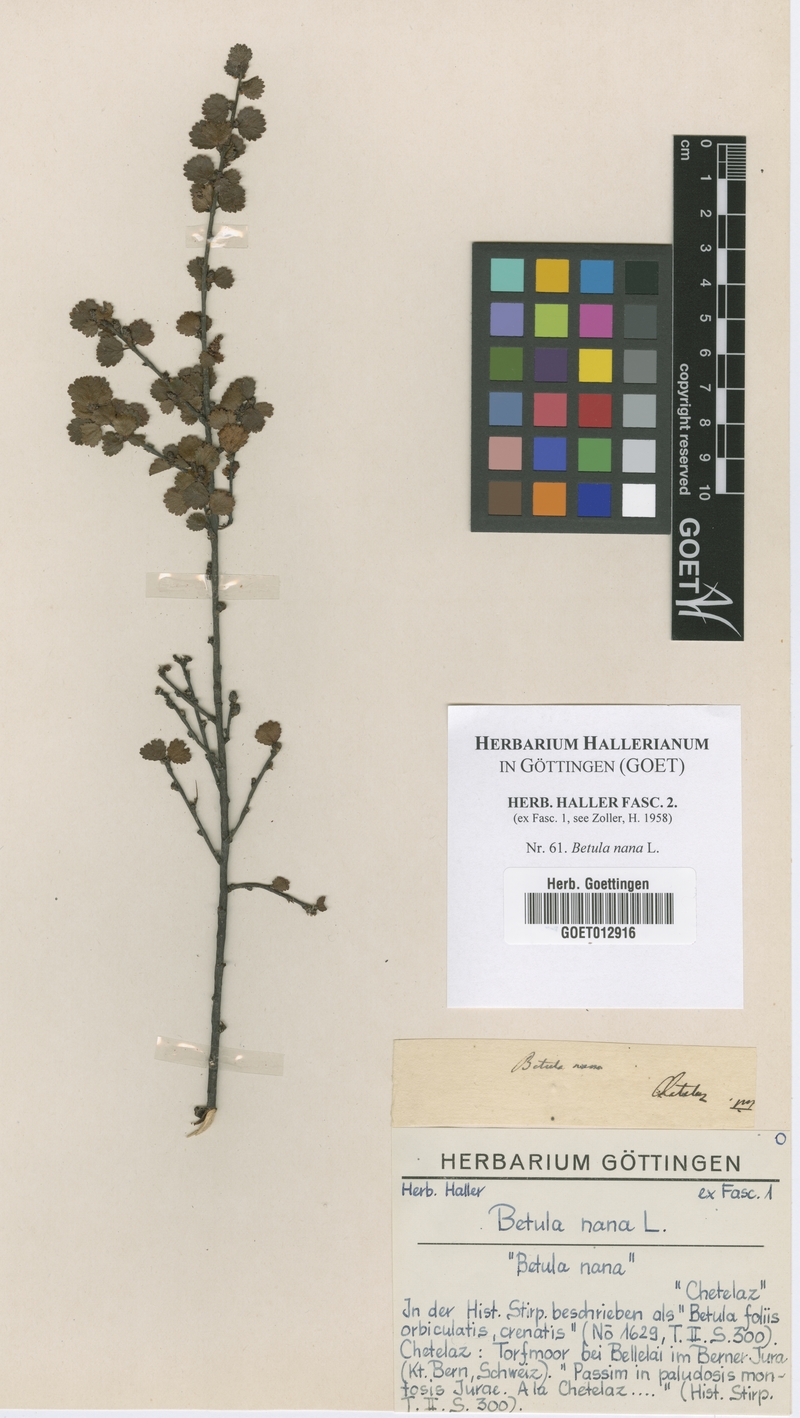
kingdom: Plantae
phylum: Tracheophyta
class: Magnoliopsida
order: Fagales
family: Betulaceae
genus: Betula
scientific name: Betula nana
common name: Arctic dwarf birch
